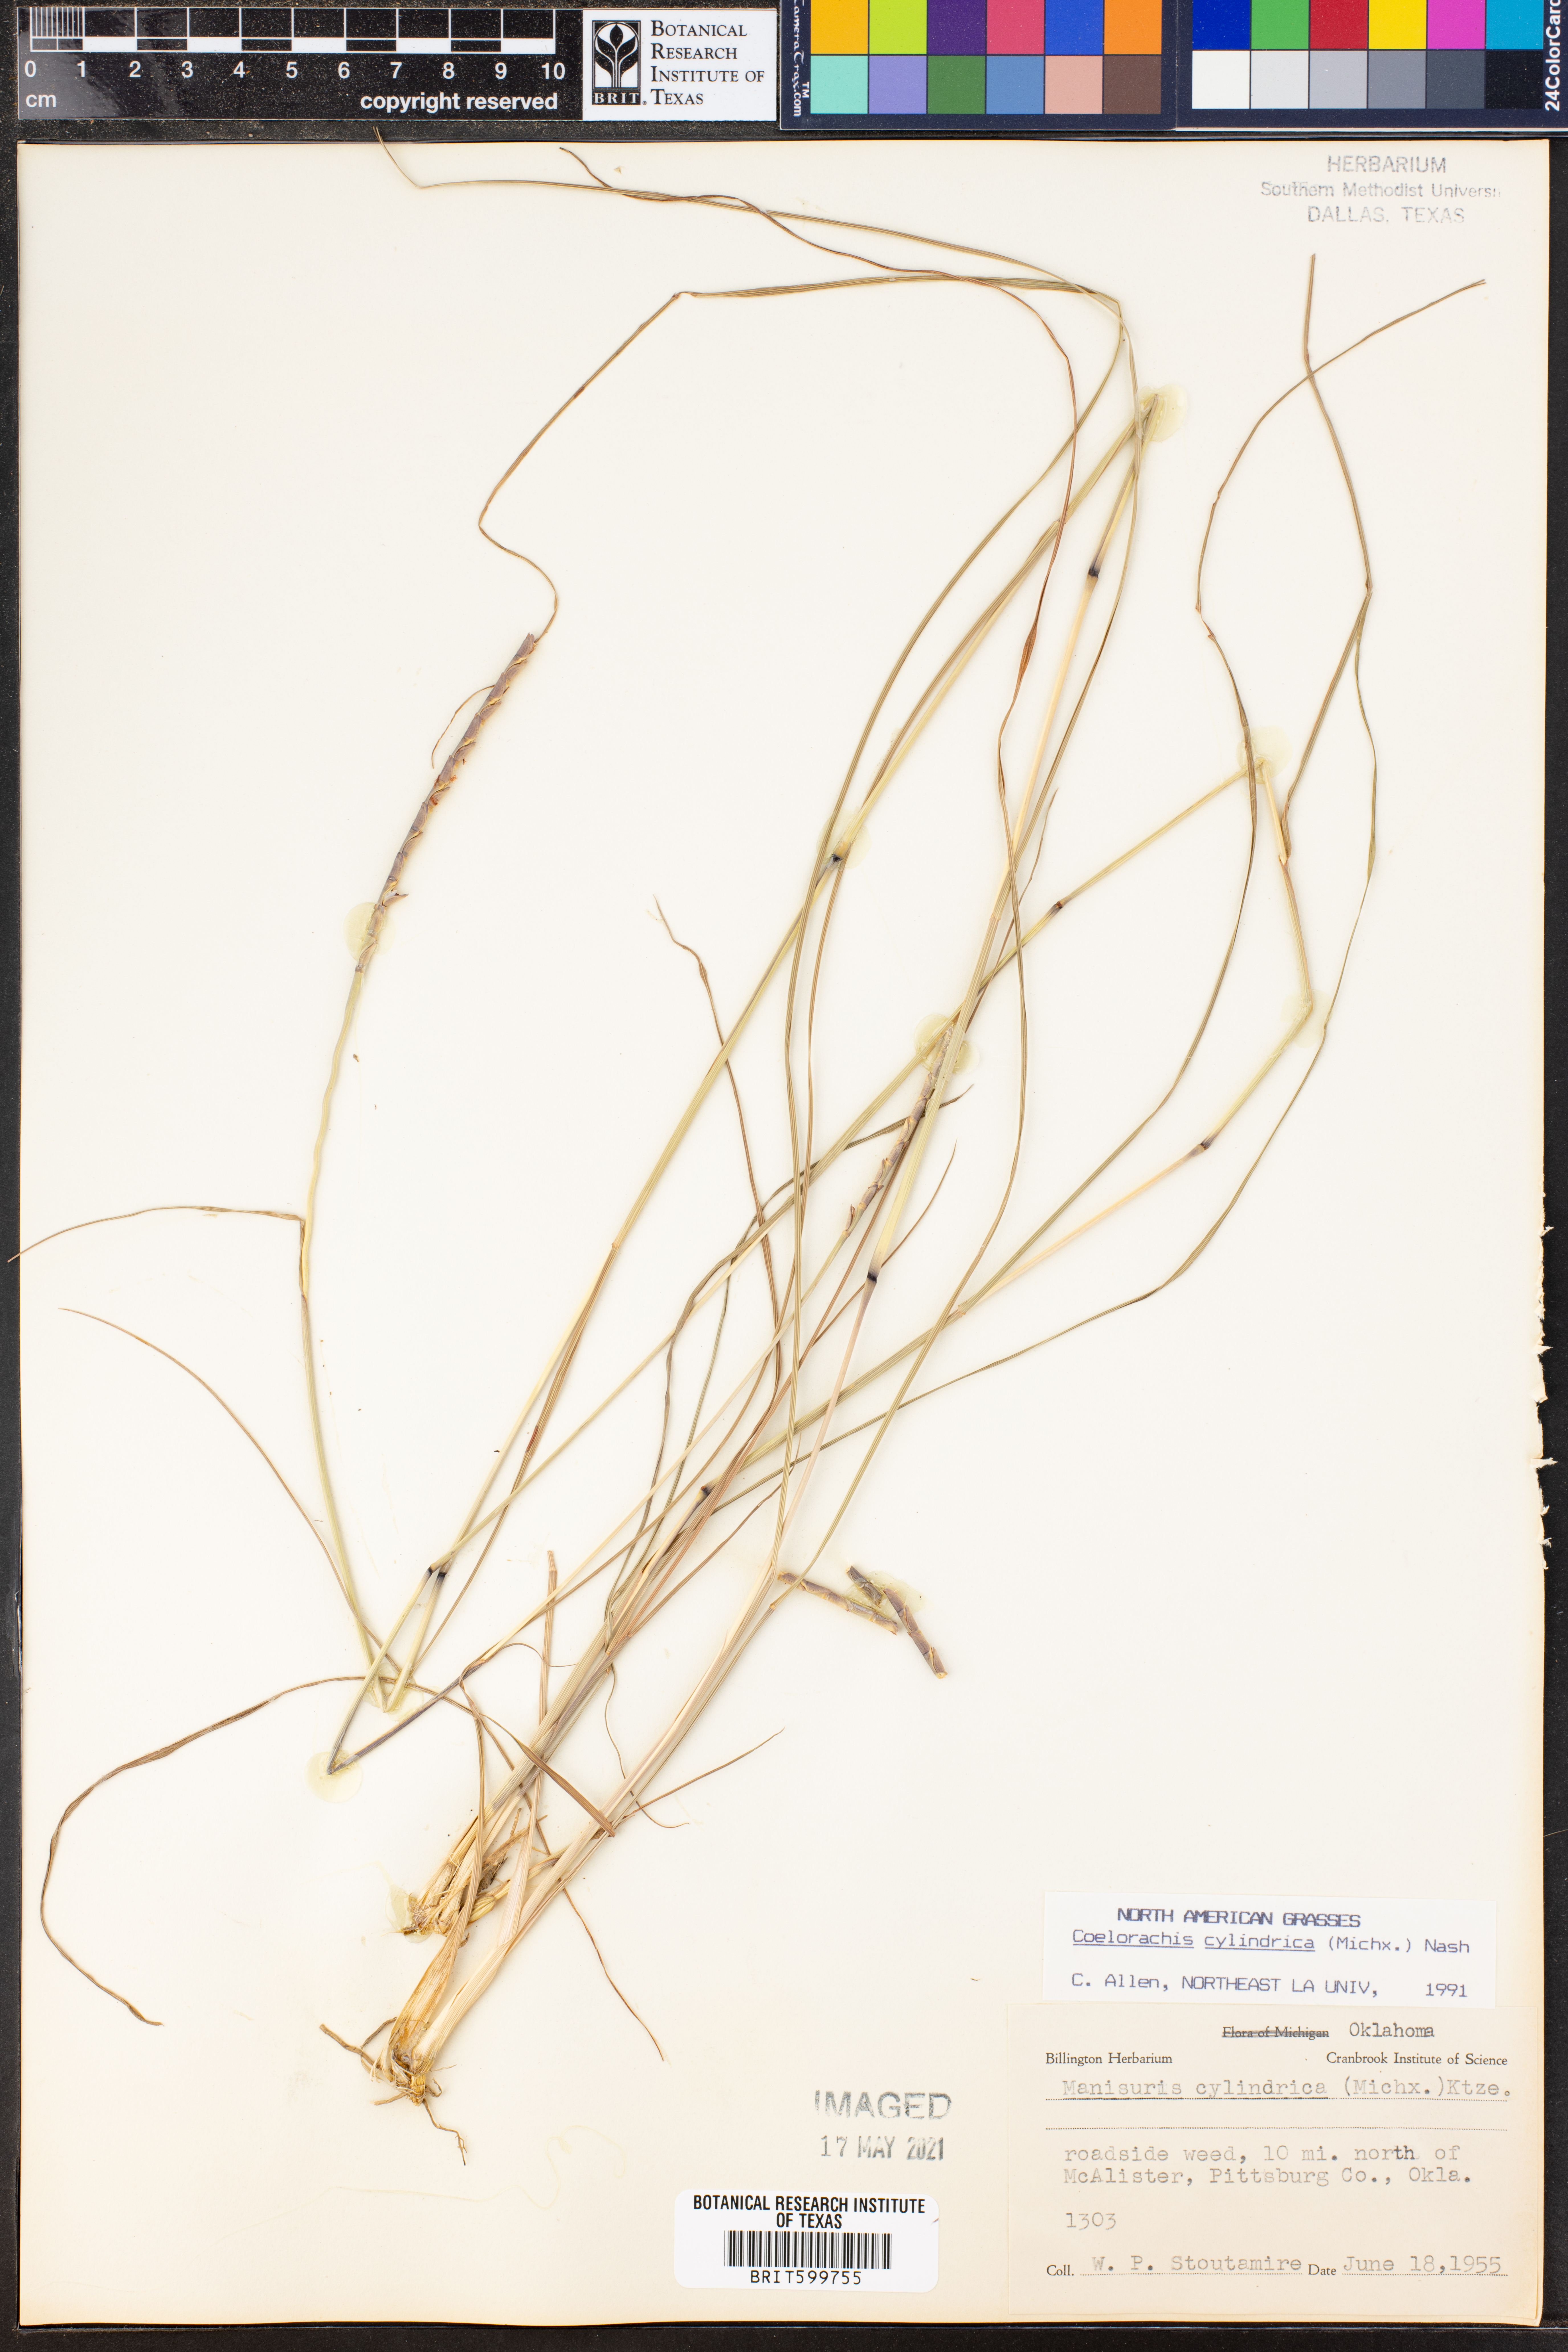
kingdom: Plantae
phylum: Tracheophyta
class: Liliopsida
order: Poales
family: Poaceae
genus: Rottboellia
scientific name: Rottboellia campestris
